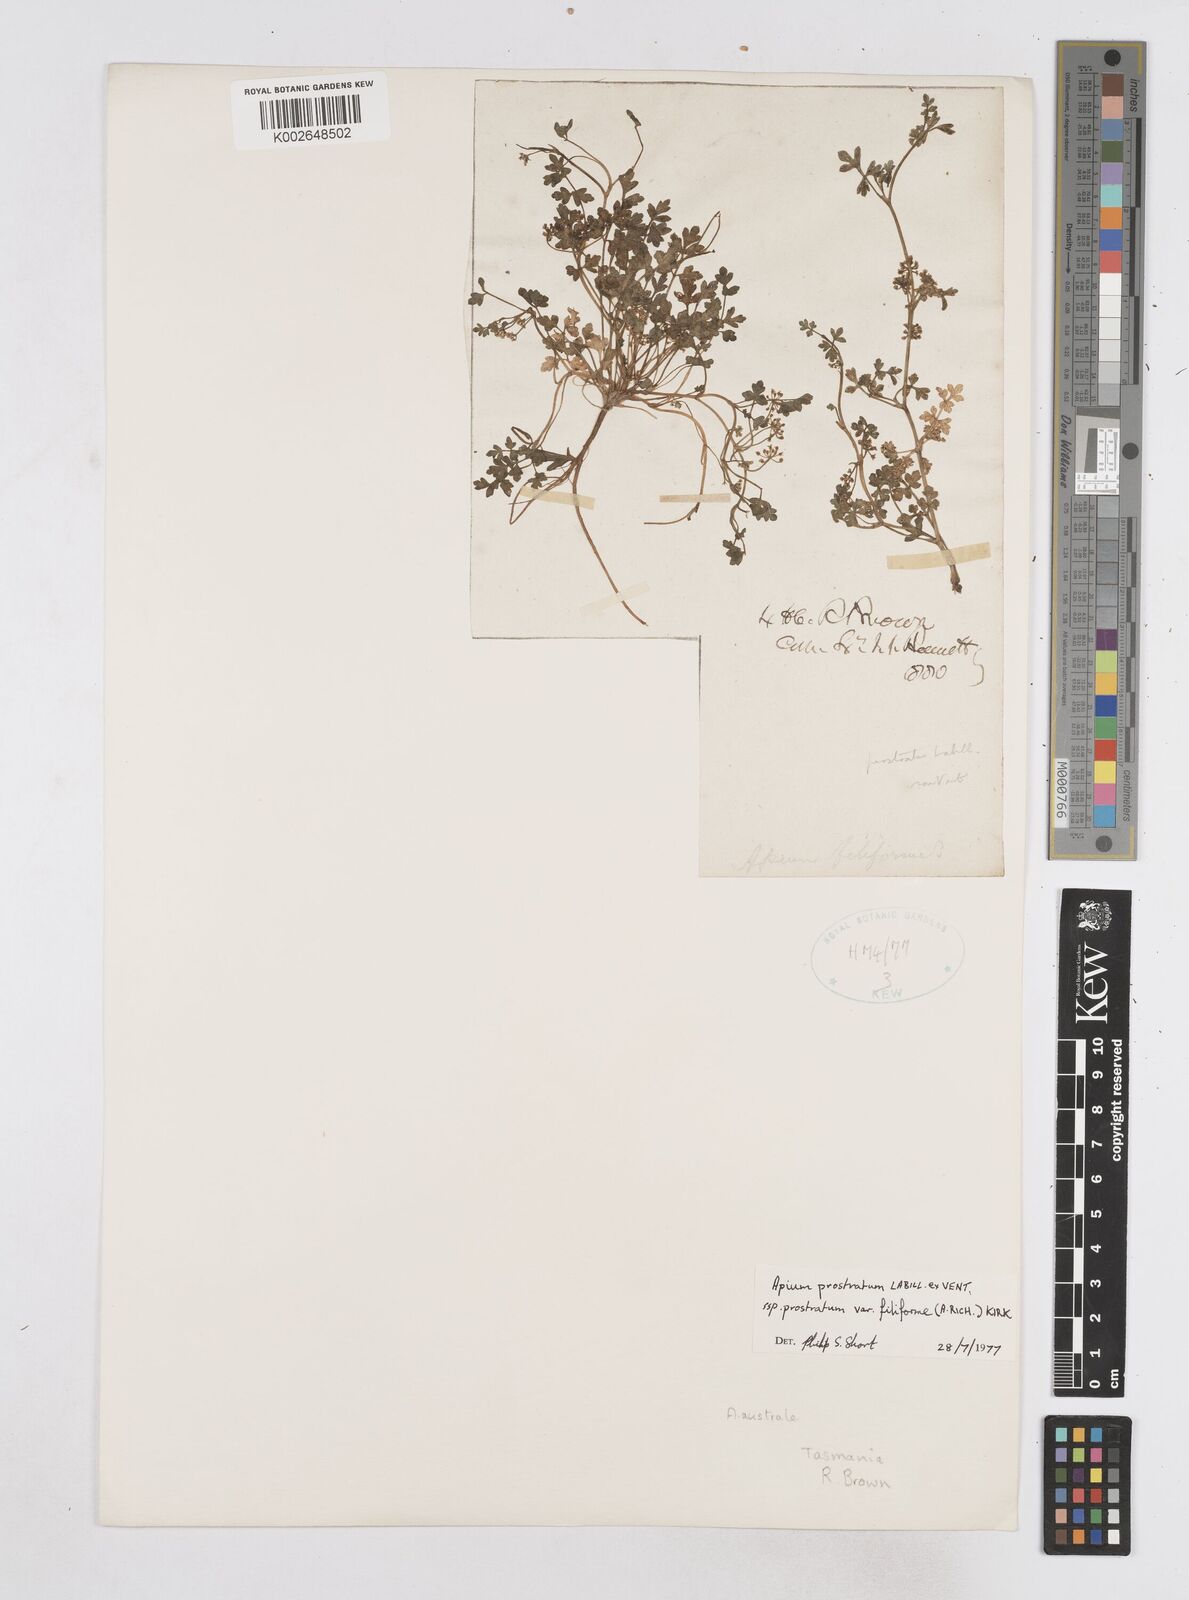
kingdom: Plantae
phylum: Tracheophyta
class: Magnoliopsida
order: Apiales
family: Apiaceae
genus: Apium
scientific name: Apium prostratum
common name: Prostrate marshwort
